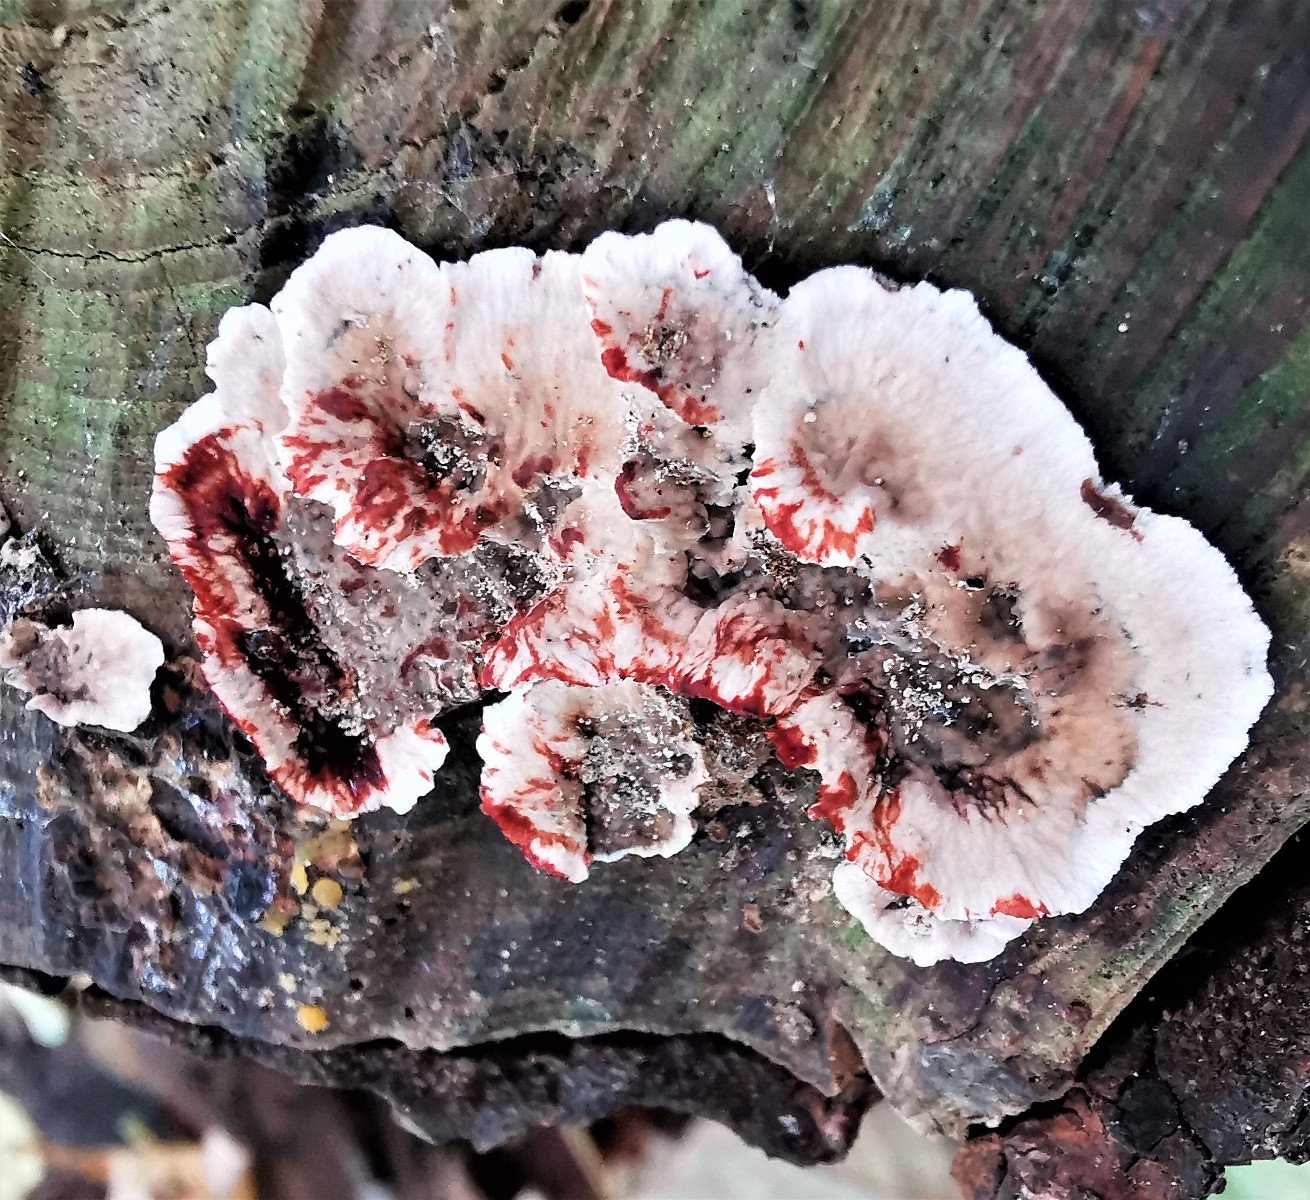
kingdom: Fungi
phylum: Basidiomycota
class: Agaricomycetes
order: Russulales
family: Stereaceae
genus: Stereum
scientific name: Stereum sanguinolentum
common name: blødende lædersvamp
